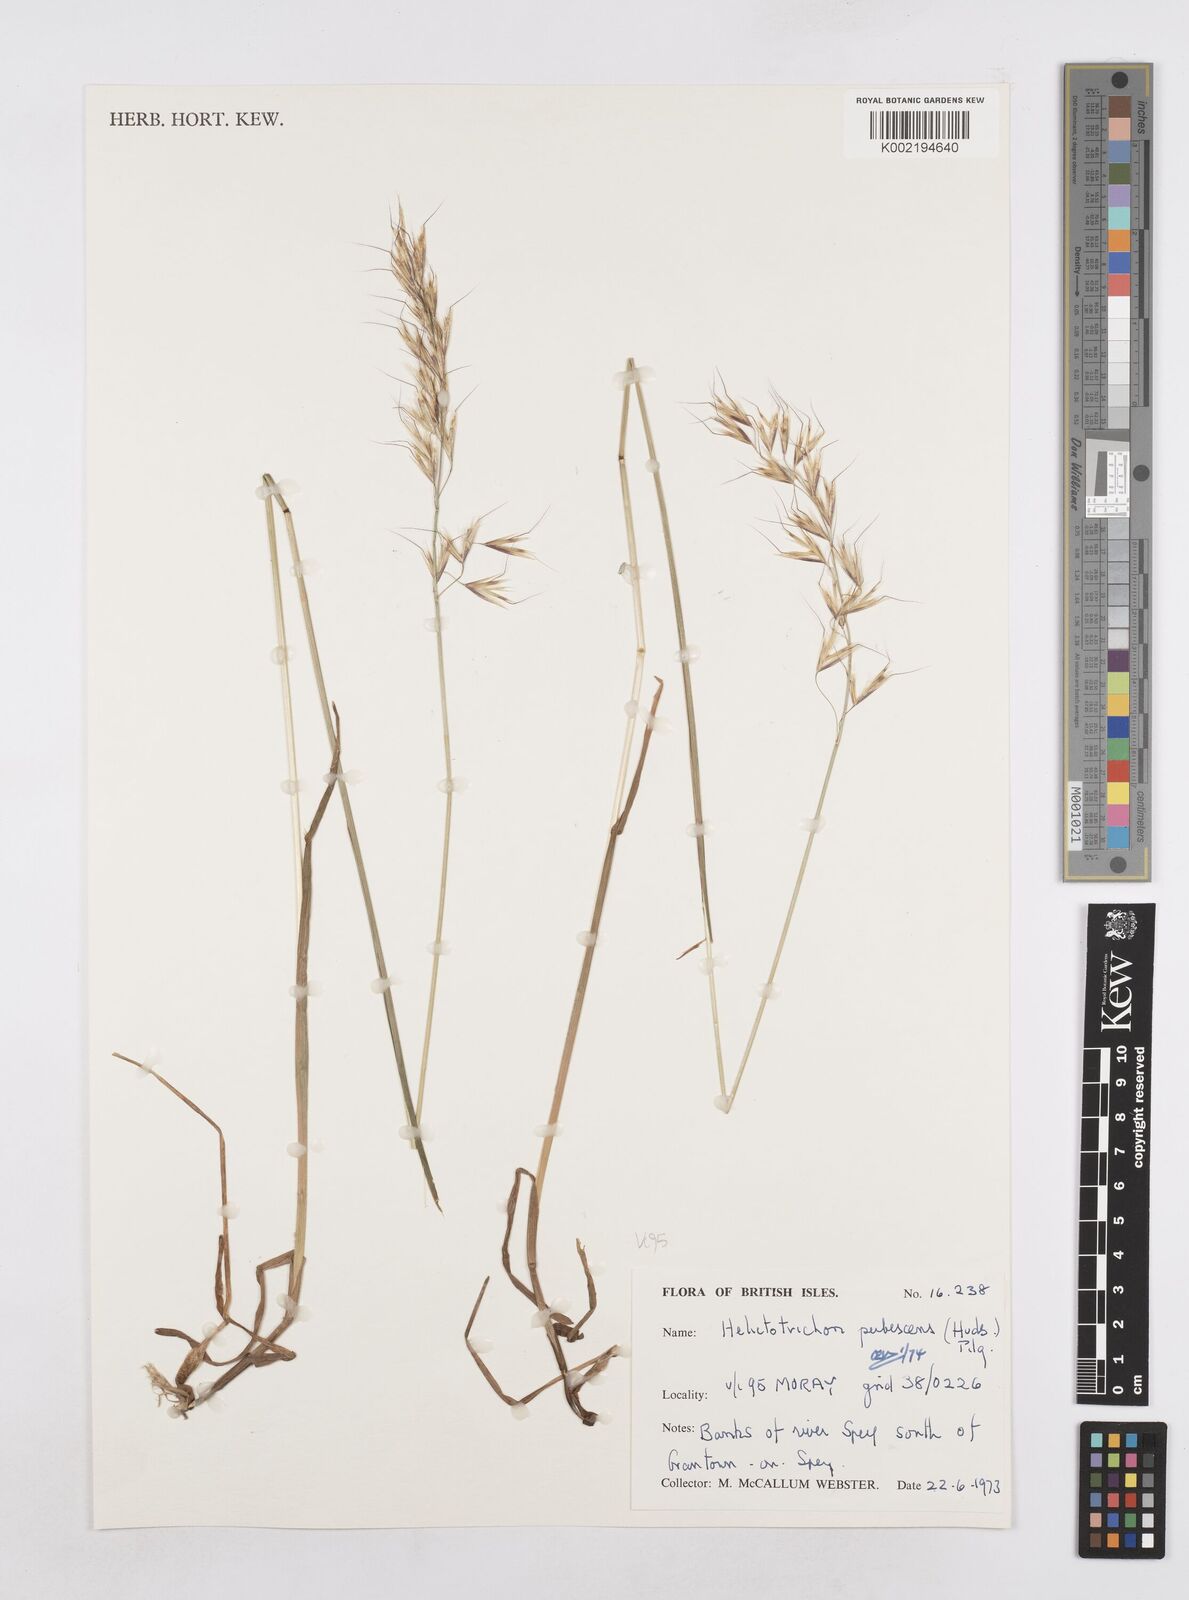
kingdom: Plantae
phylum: Tracheophyta
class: Liliopsida
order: Poales
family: Poaceae
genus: Avenula
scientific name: Avenula pubescens
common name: Downy alpine oatgrass
